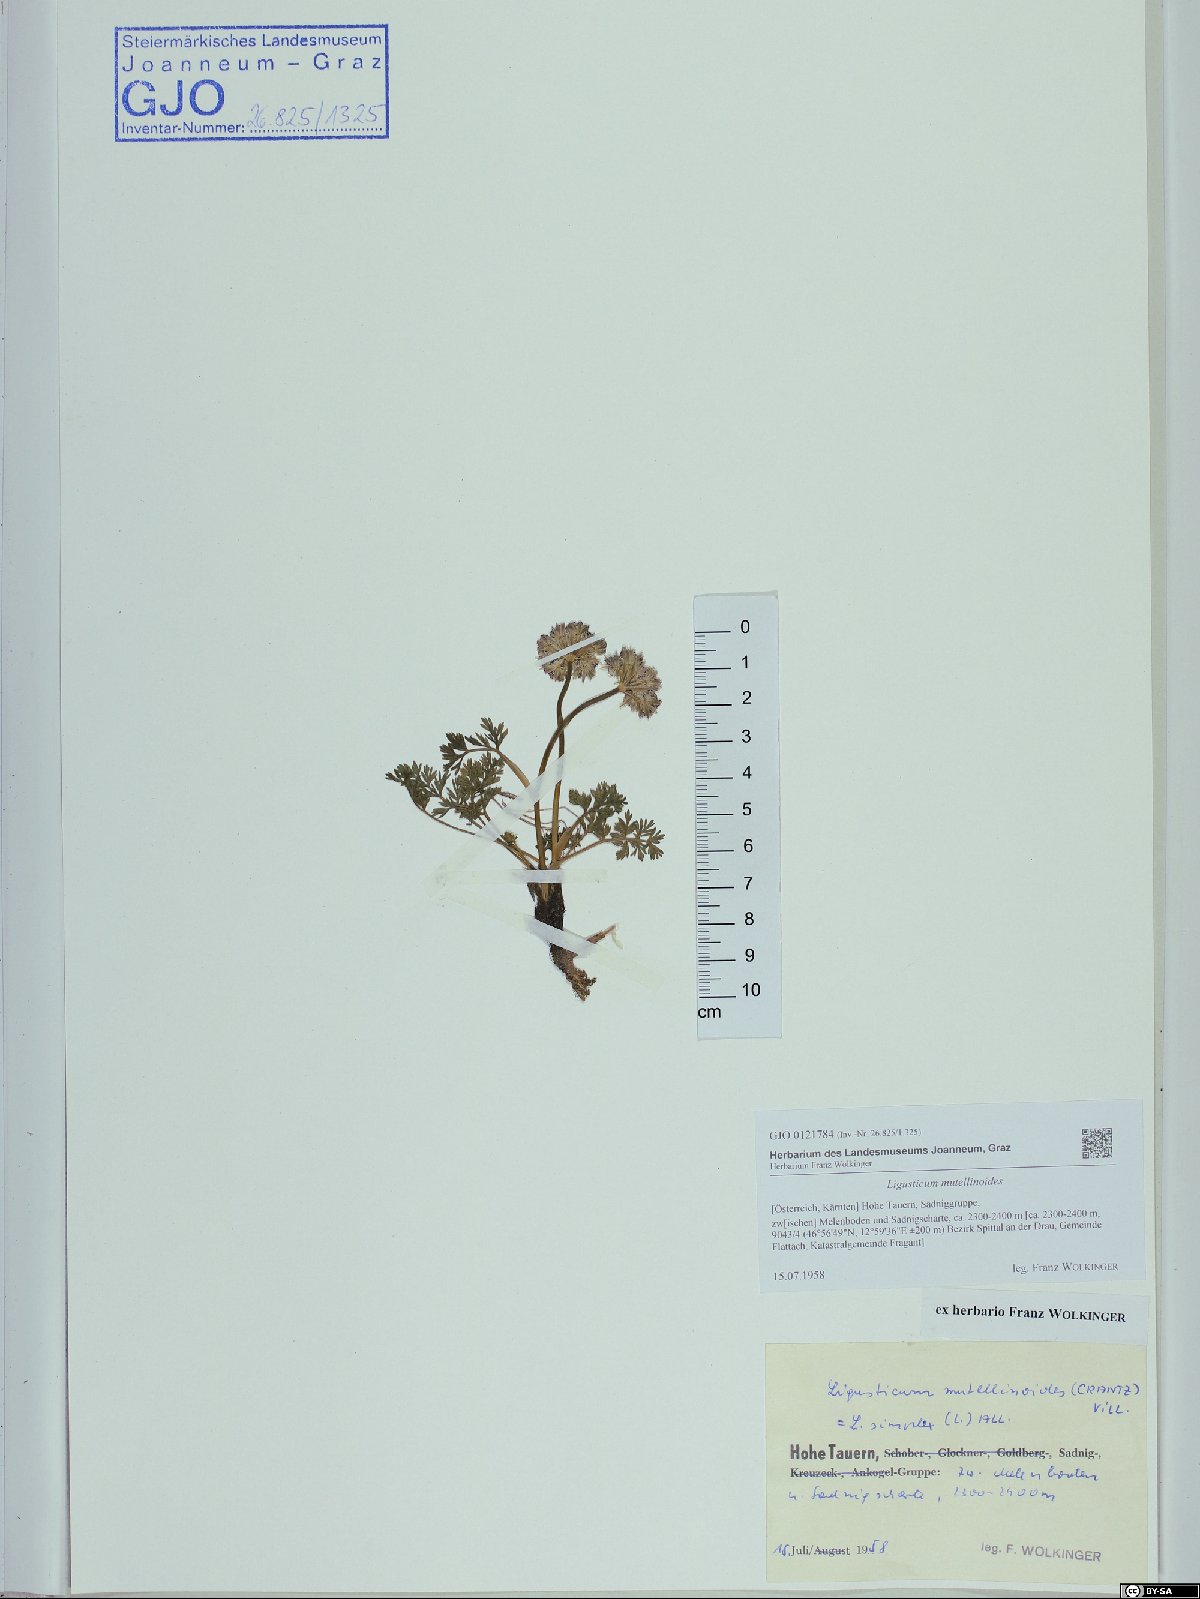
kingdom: Plantae
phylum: Tracheophyta
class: Magnoliopsida
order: Apiales
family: Apiaceae
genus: Pachypleurum
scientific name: Pachypleurum mutellinoides
